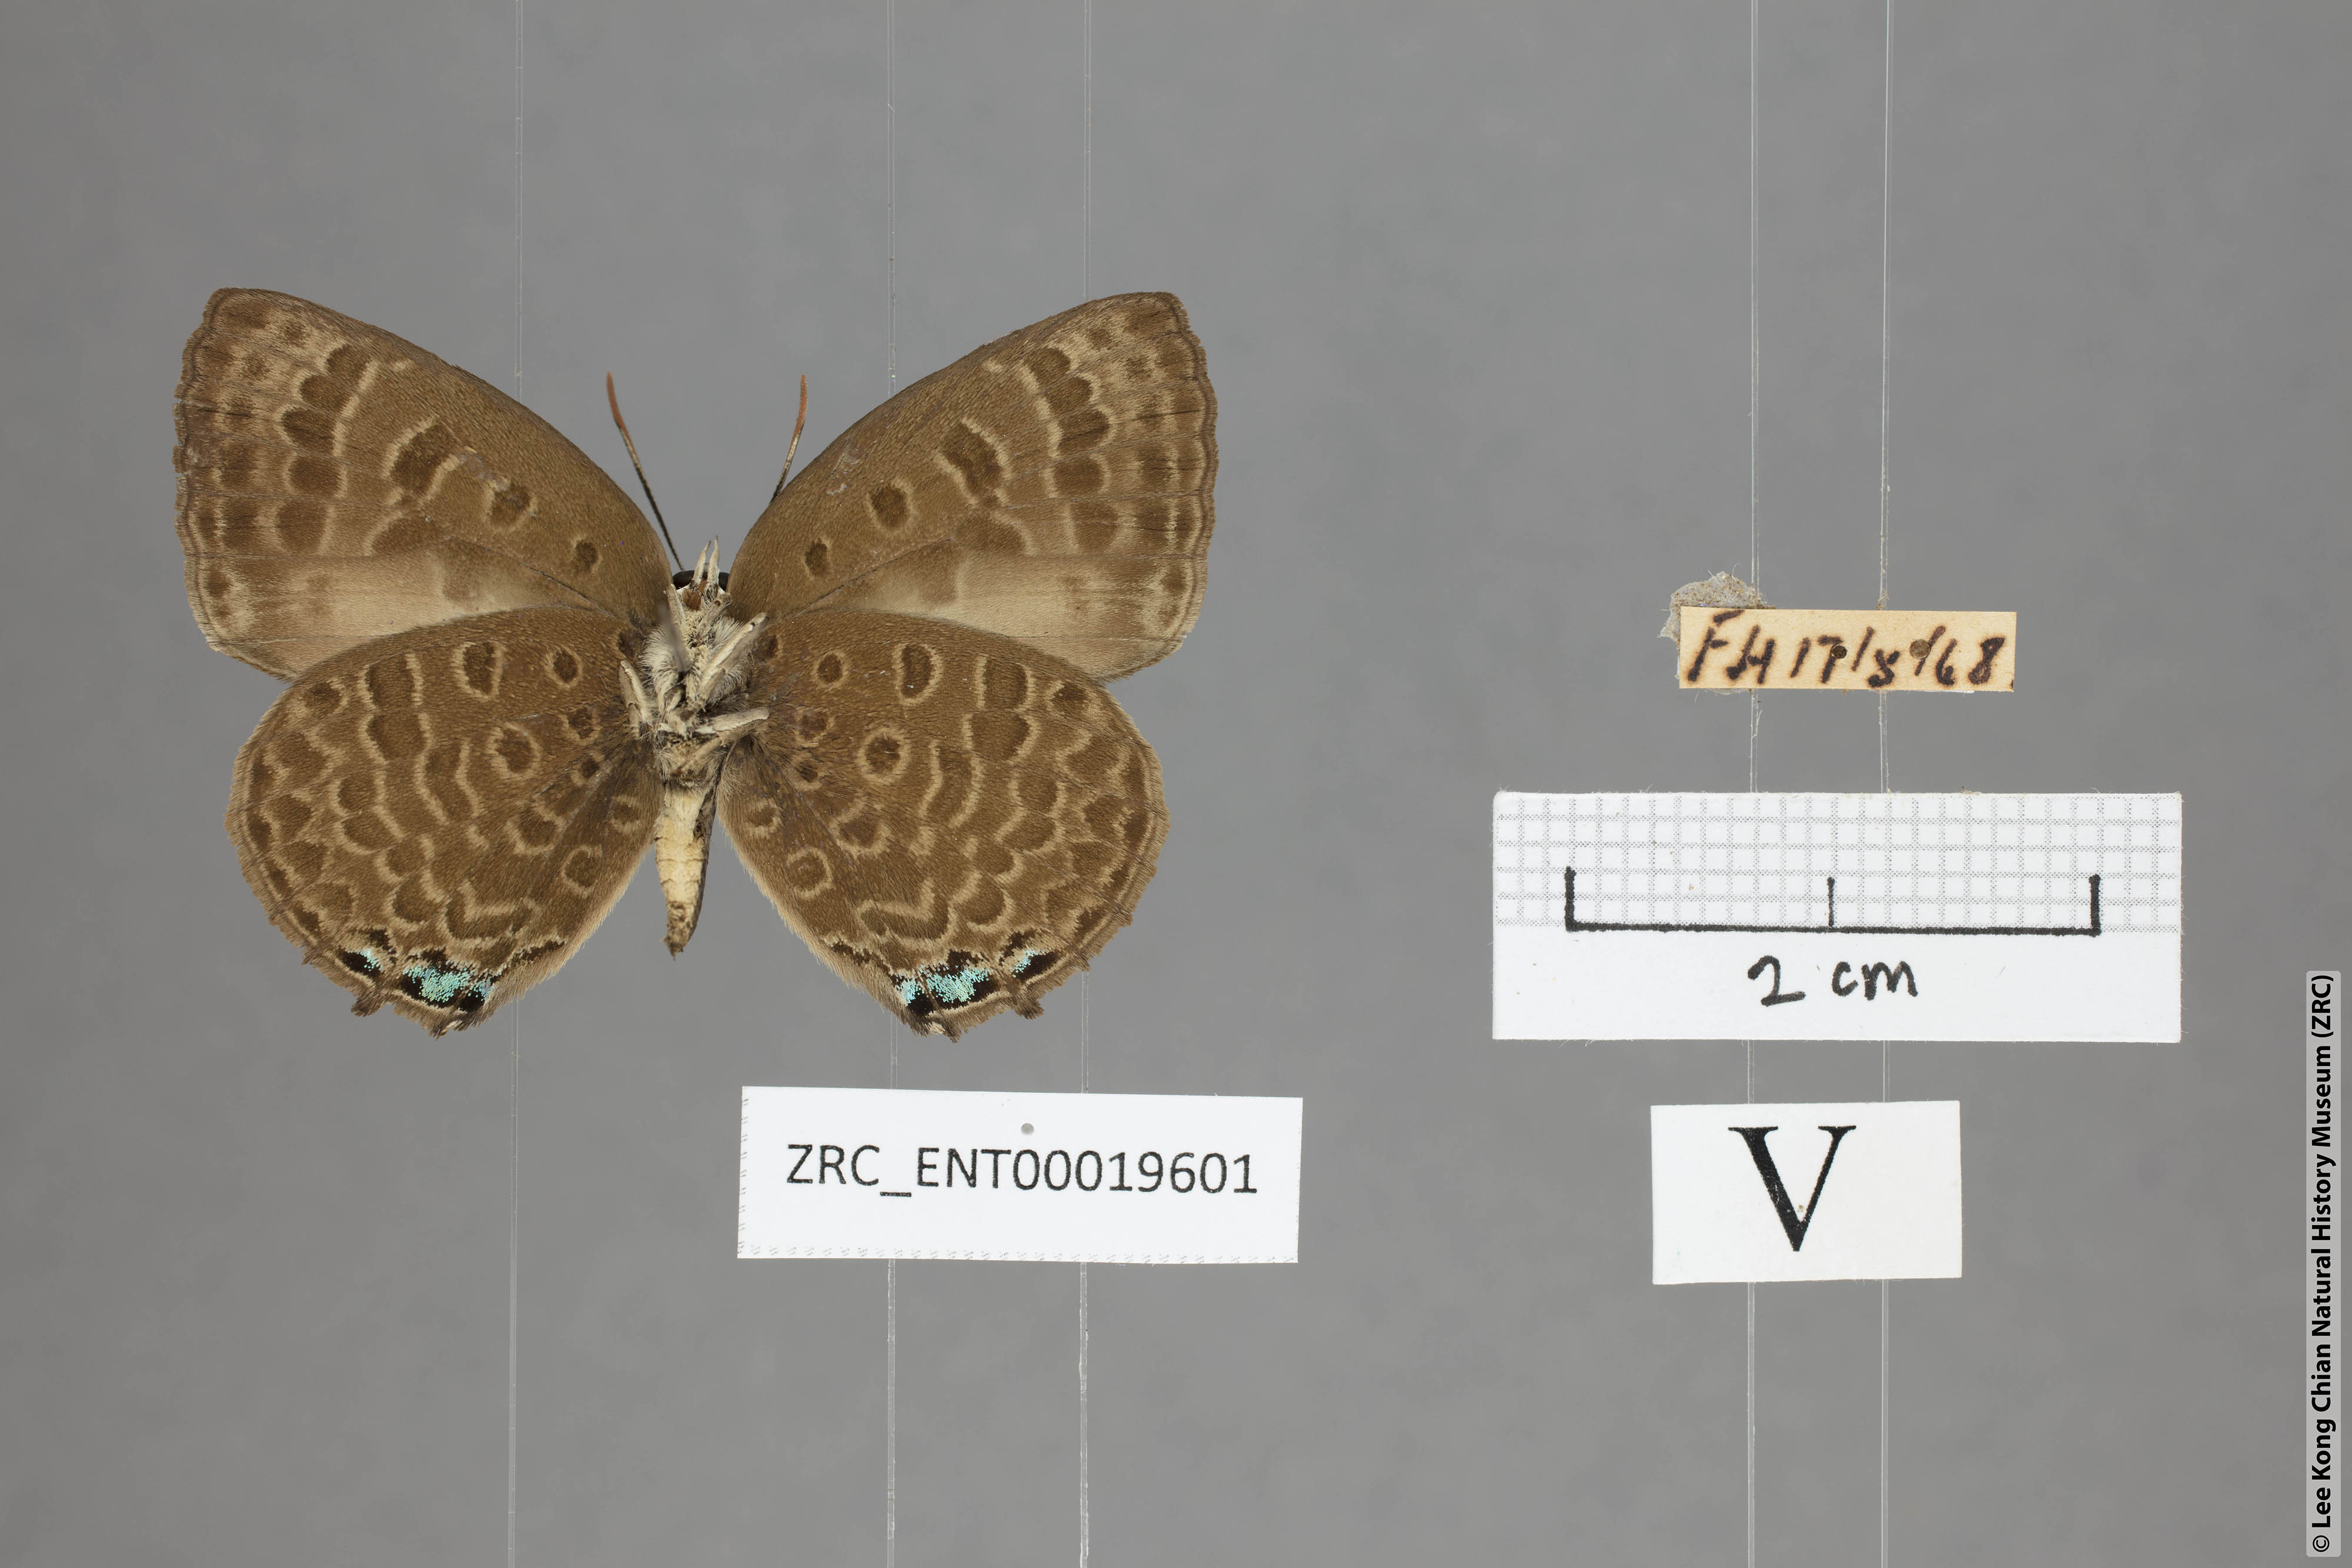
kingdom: Animalia
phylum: Arthropoda
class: Insecta
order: Lepidoptera
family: Lycaenidae
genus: Arhopala
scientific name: Arhopala labuana
